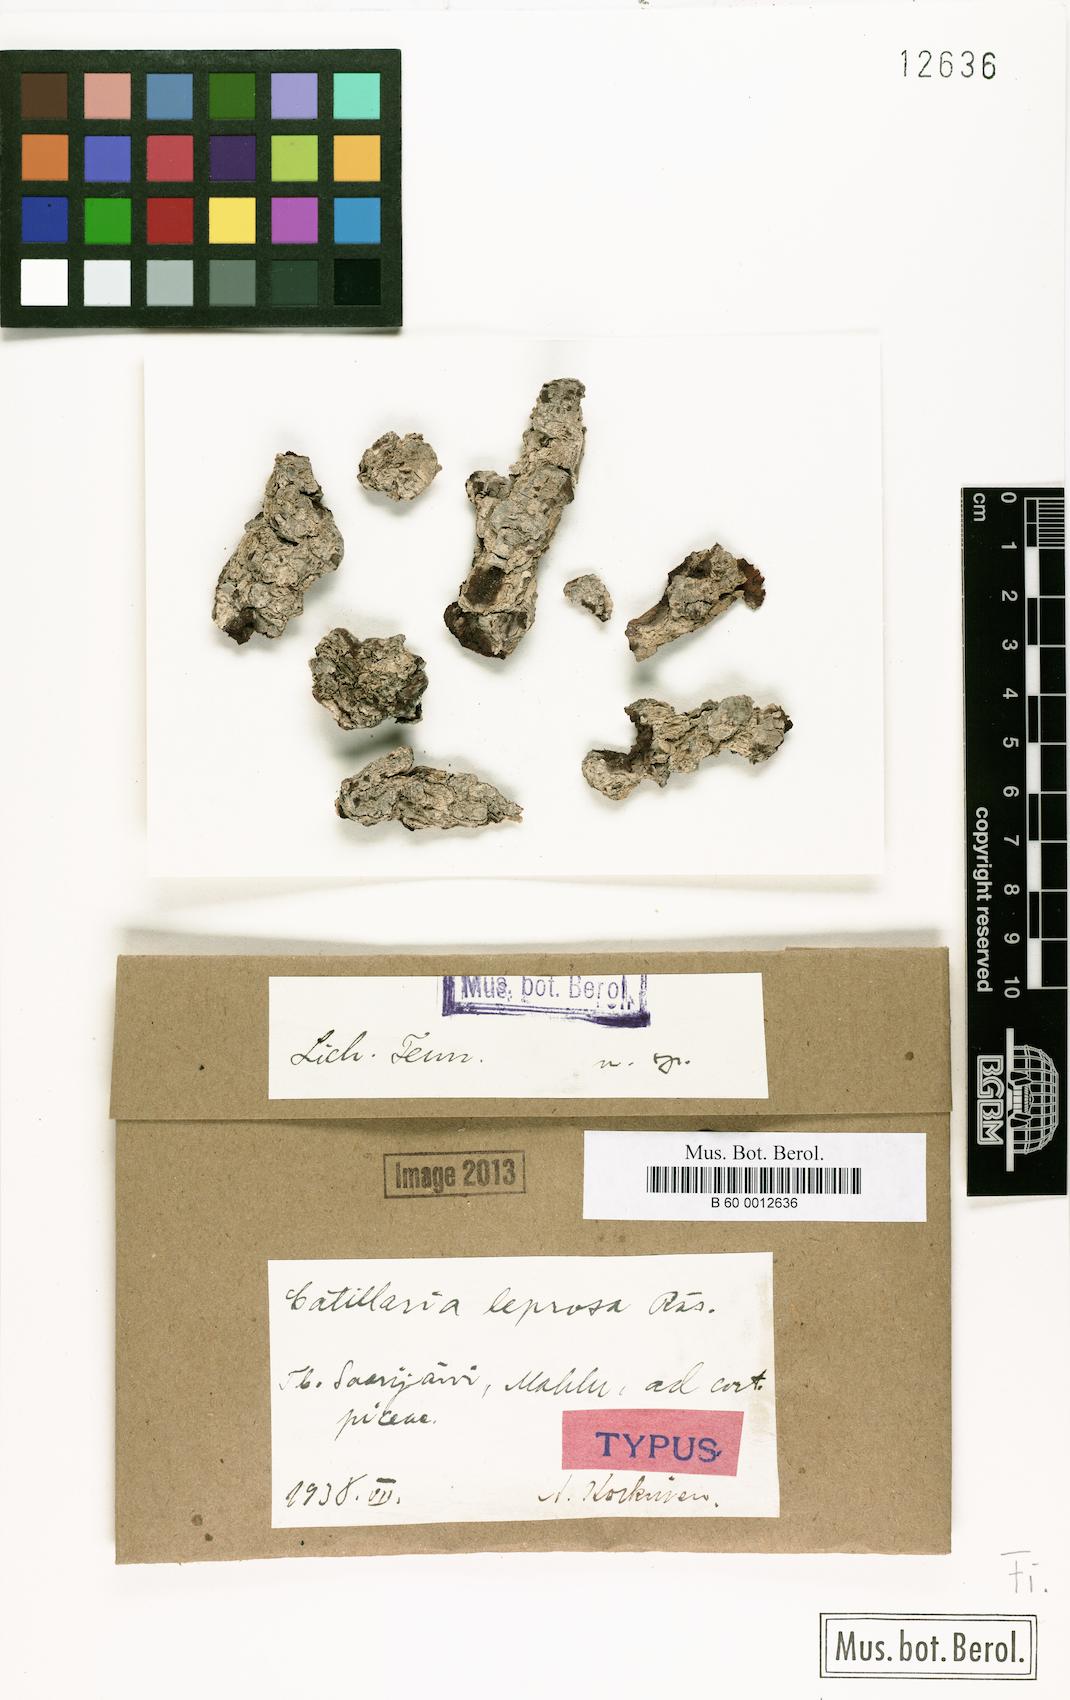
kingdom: Fungi
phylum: Ascomycota
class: Lecanoromycetes
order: Lecanorales
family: Ramalinaceae
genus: Cliostomum
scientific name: Cliostomum leprosum
